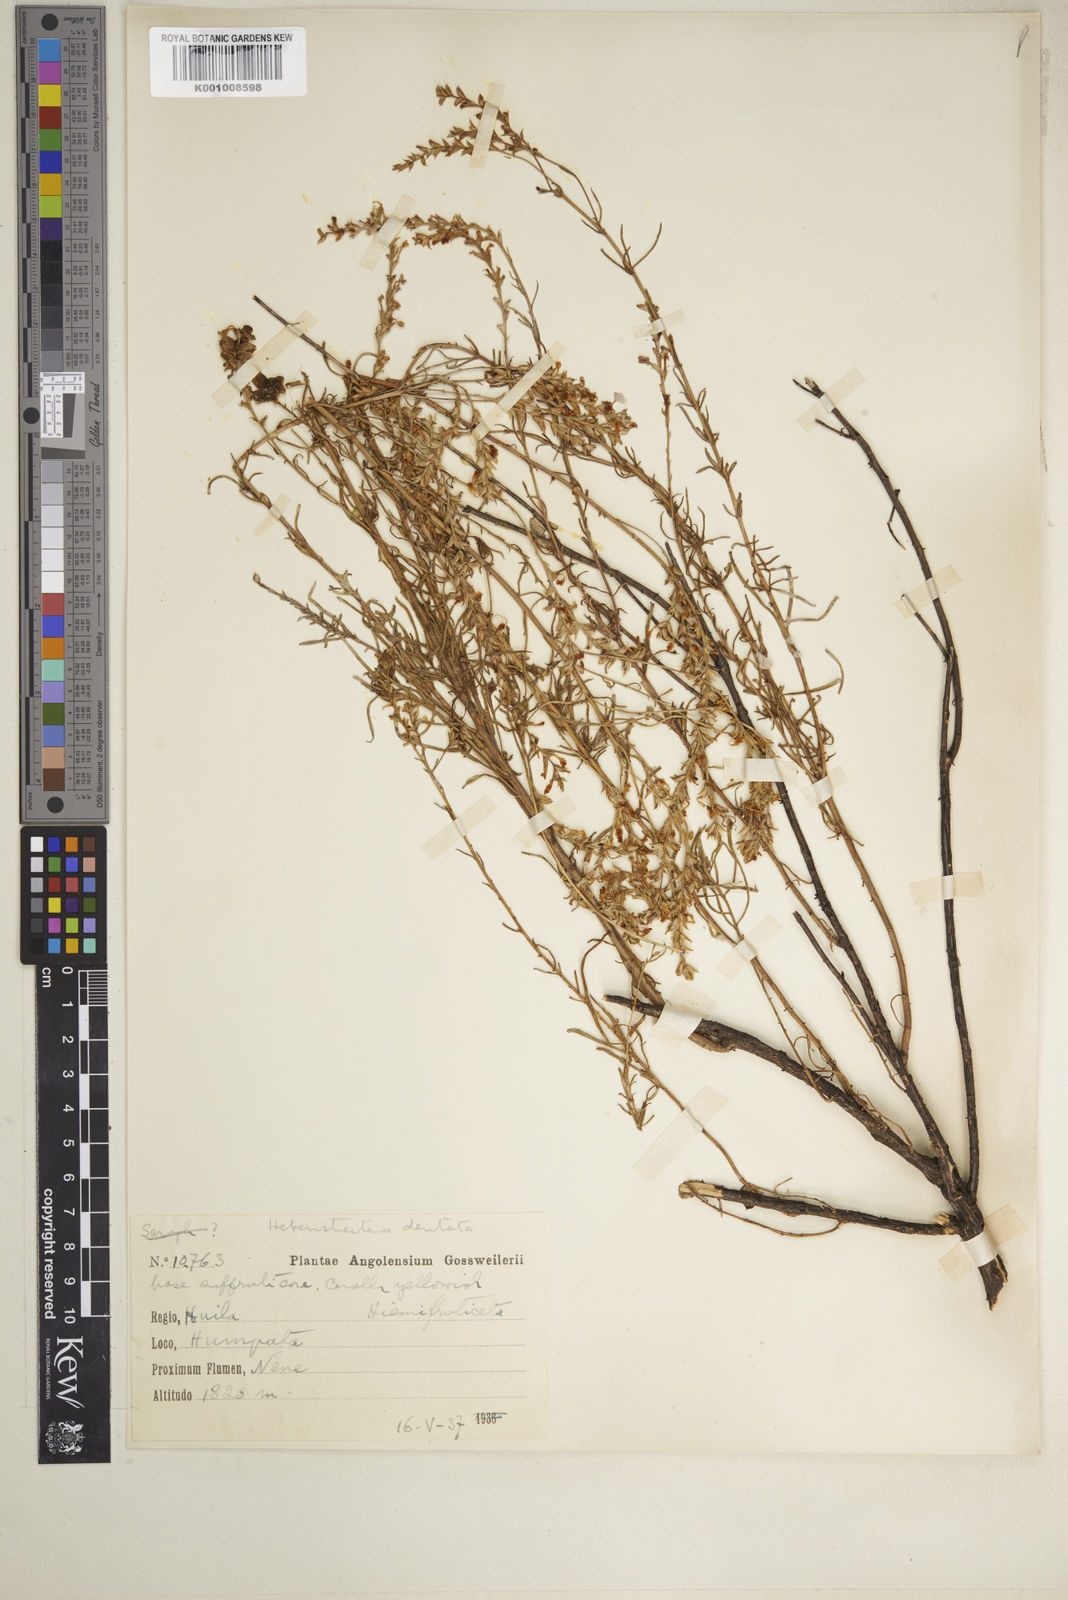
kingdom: Plantae
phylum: Tracheophyta
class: Magnoliopsida
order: Lamiales
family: Scrophulariaceae
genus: Hebenstretia
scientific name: Hebenstretia angolensis
